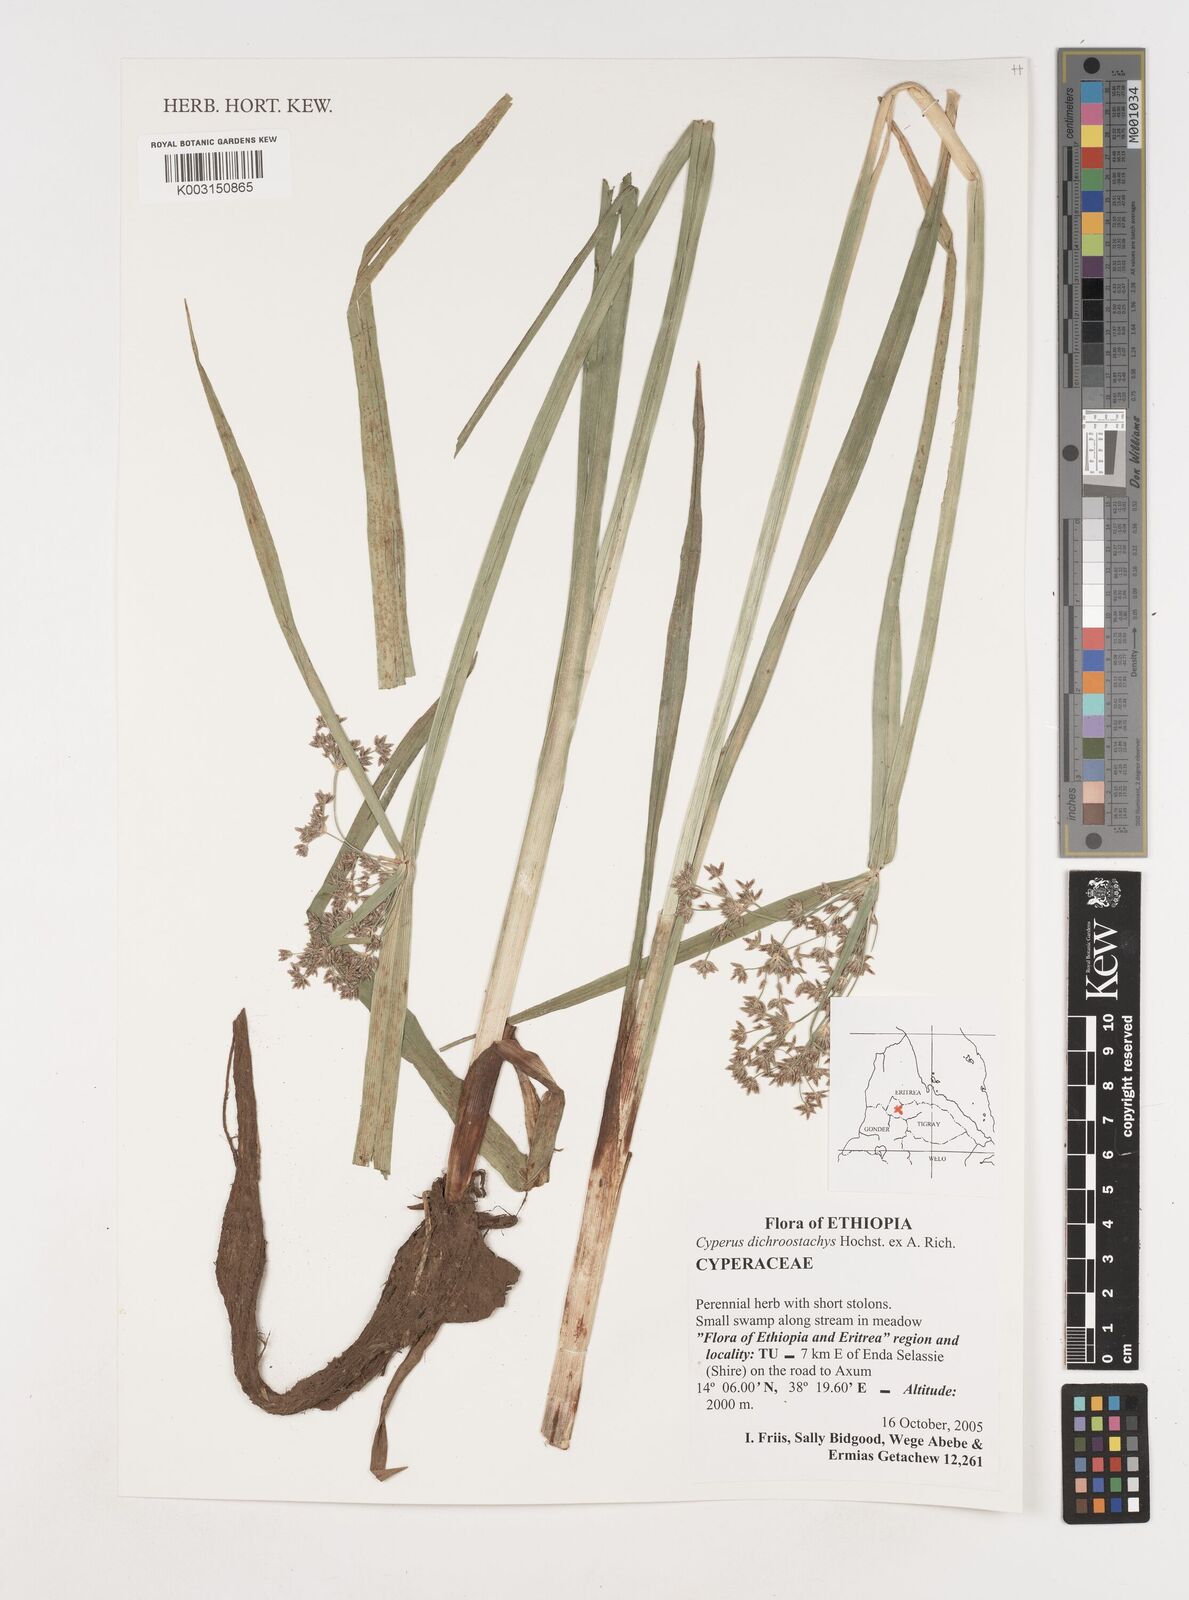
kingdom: Plantae
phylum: Tracheophyta
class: Liliopsida
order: Poales
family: Cyperaceae
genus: Cyperus
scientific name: Cyperus dichrostachyus
